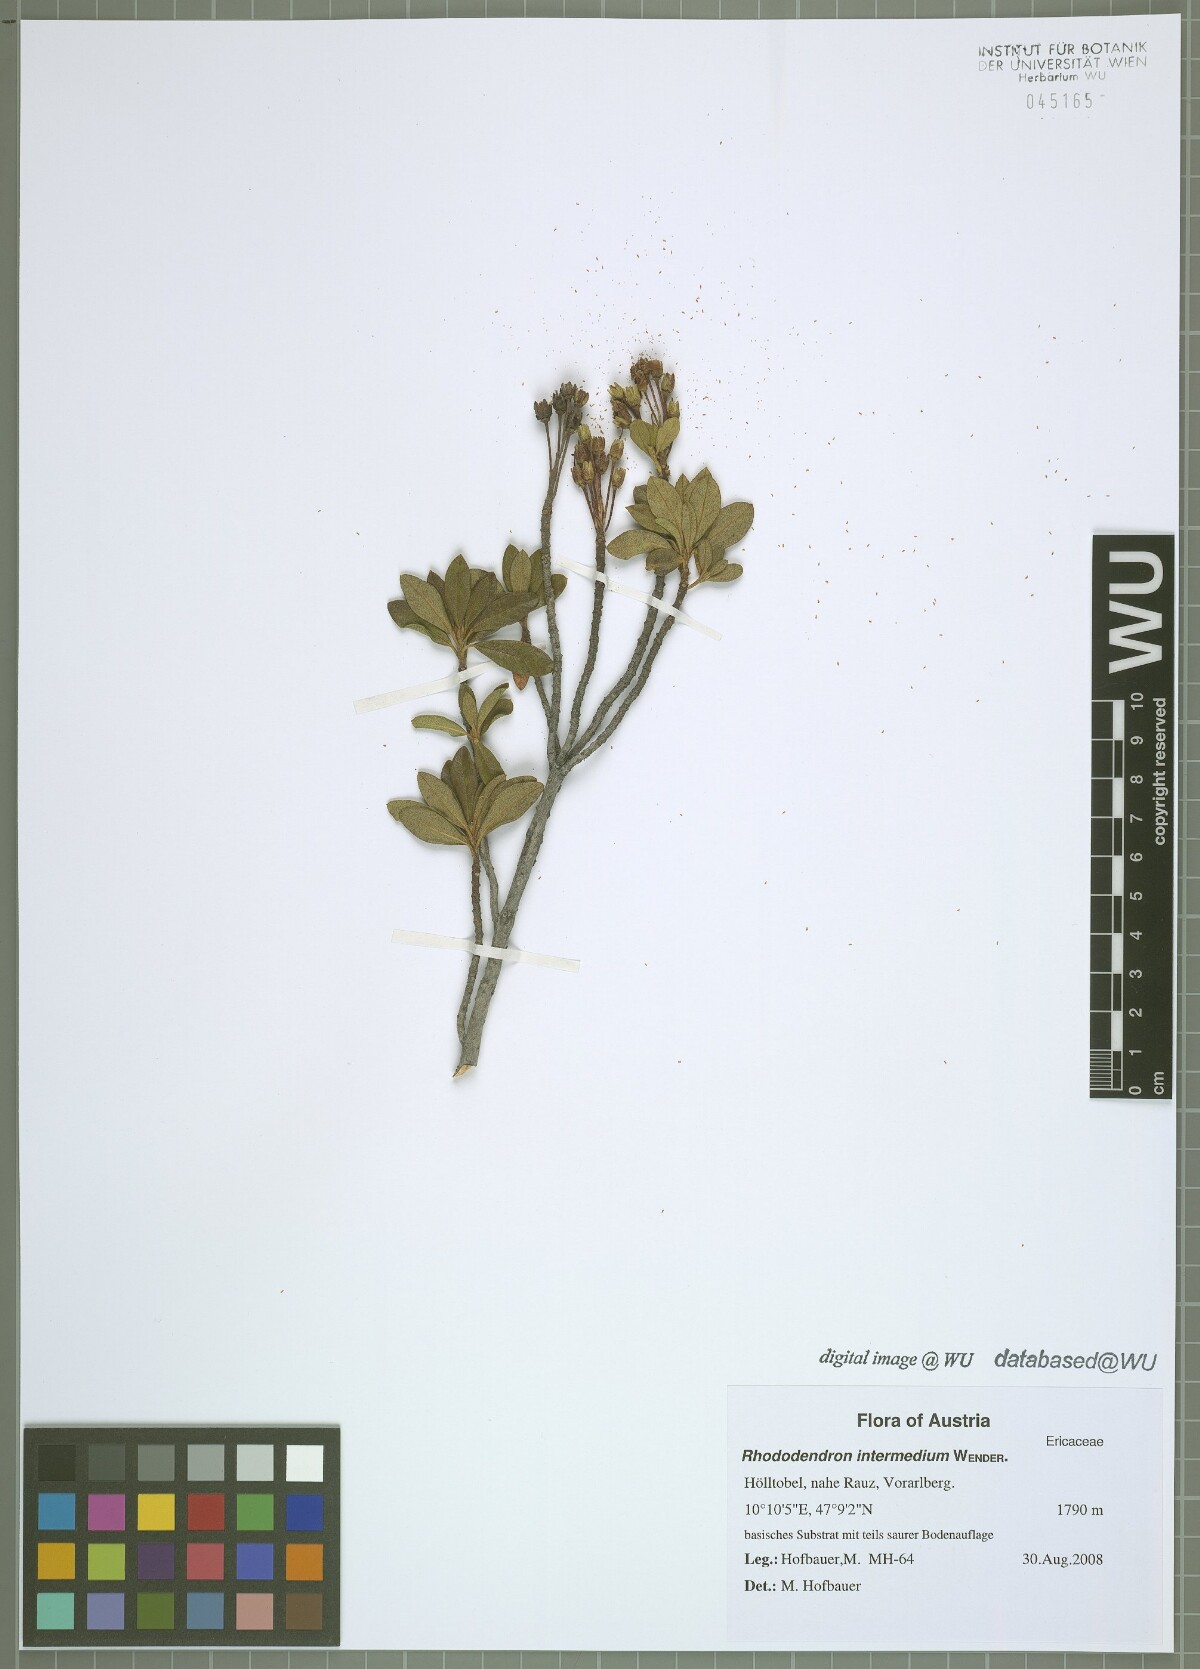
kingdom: Plantae
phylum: Tracheophyta
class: Magnoliopsida
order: Ericales
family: Ericaceae
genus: Rhododendron
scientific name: Rhododendron intermedium
